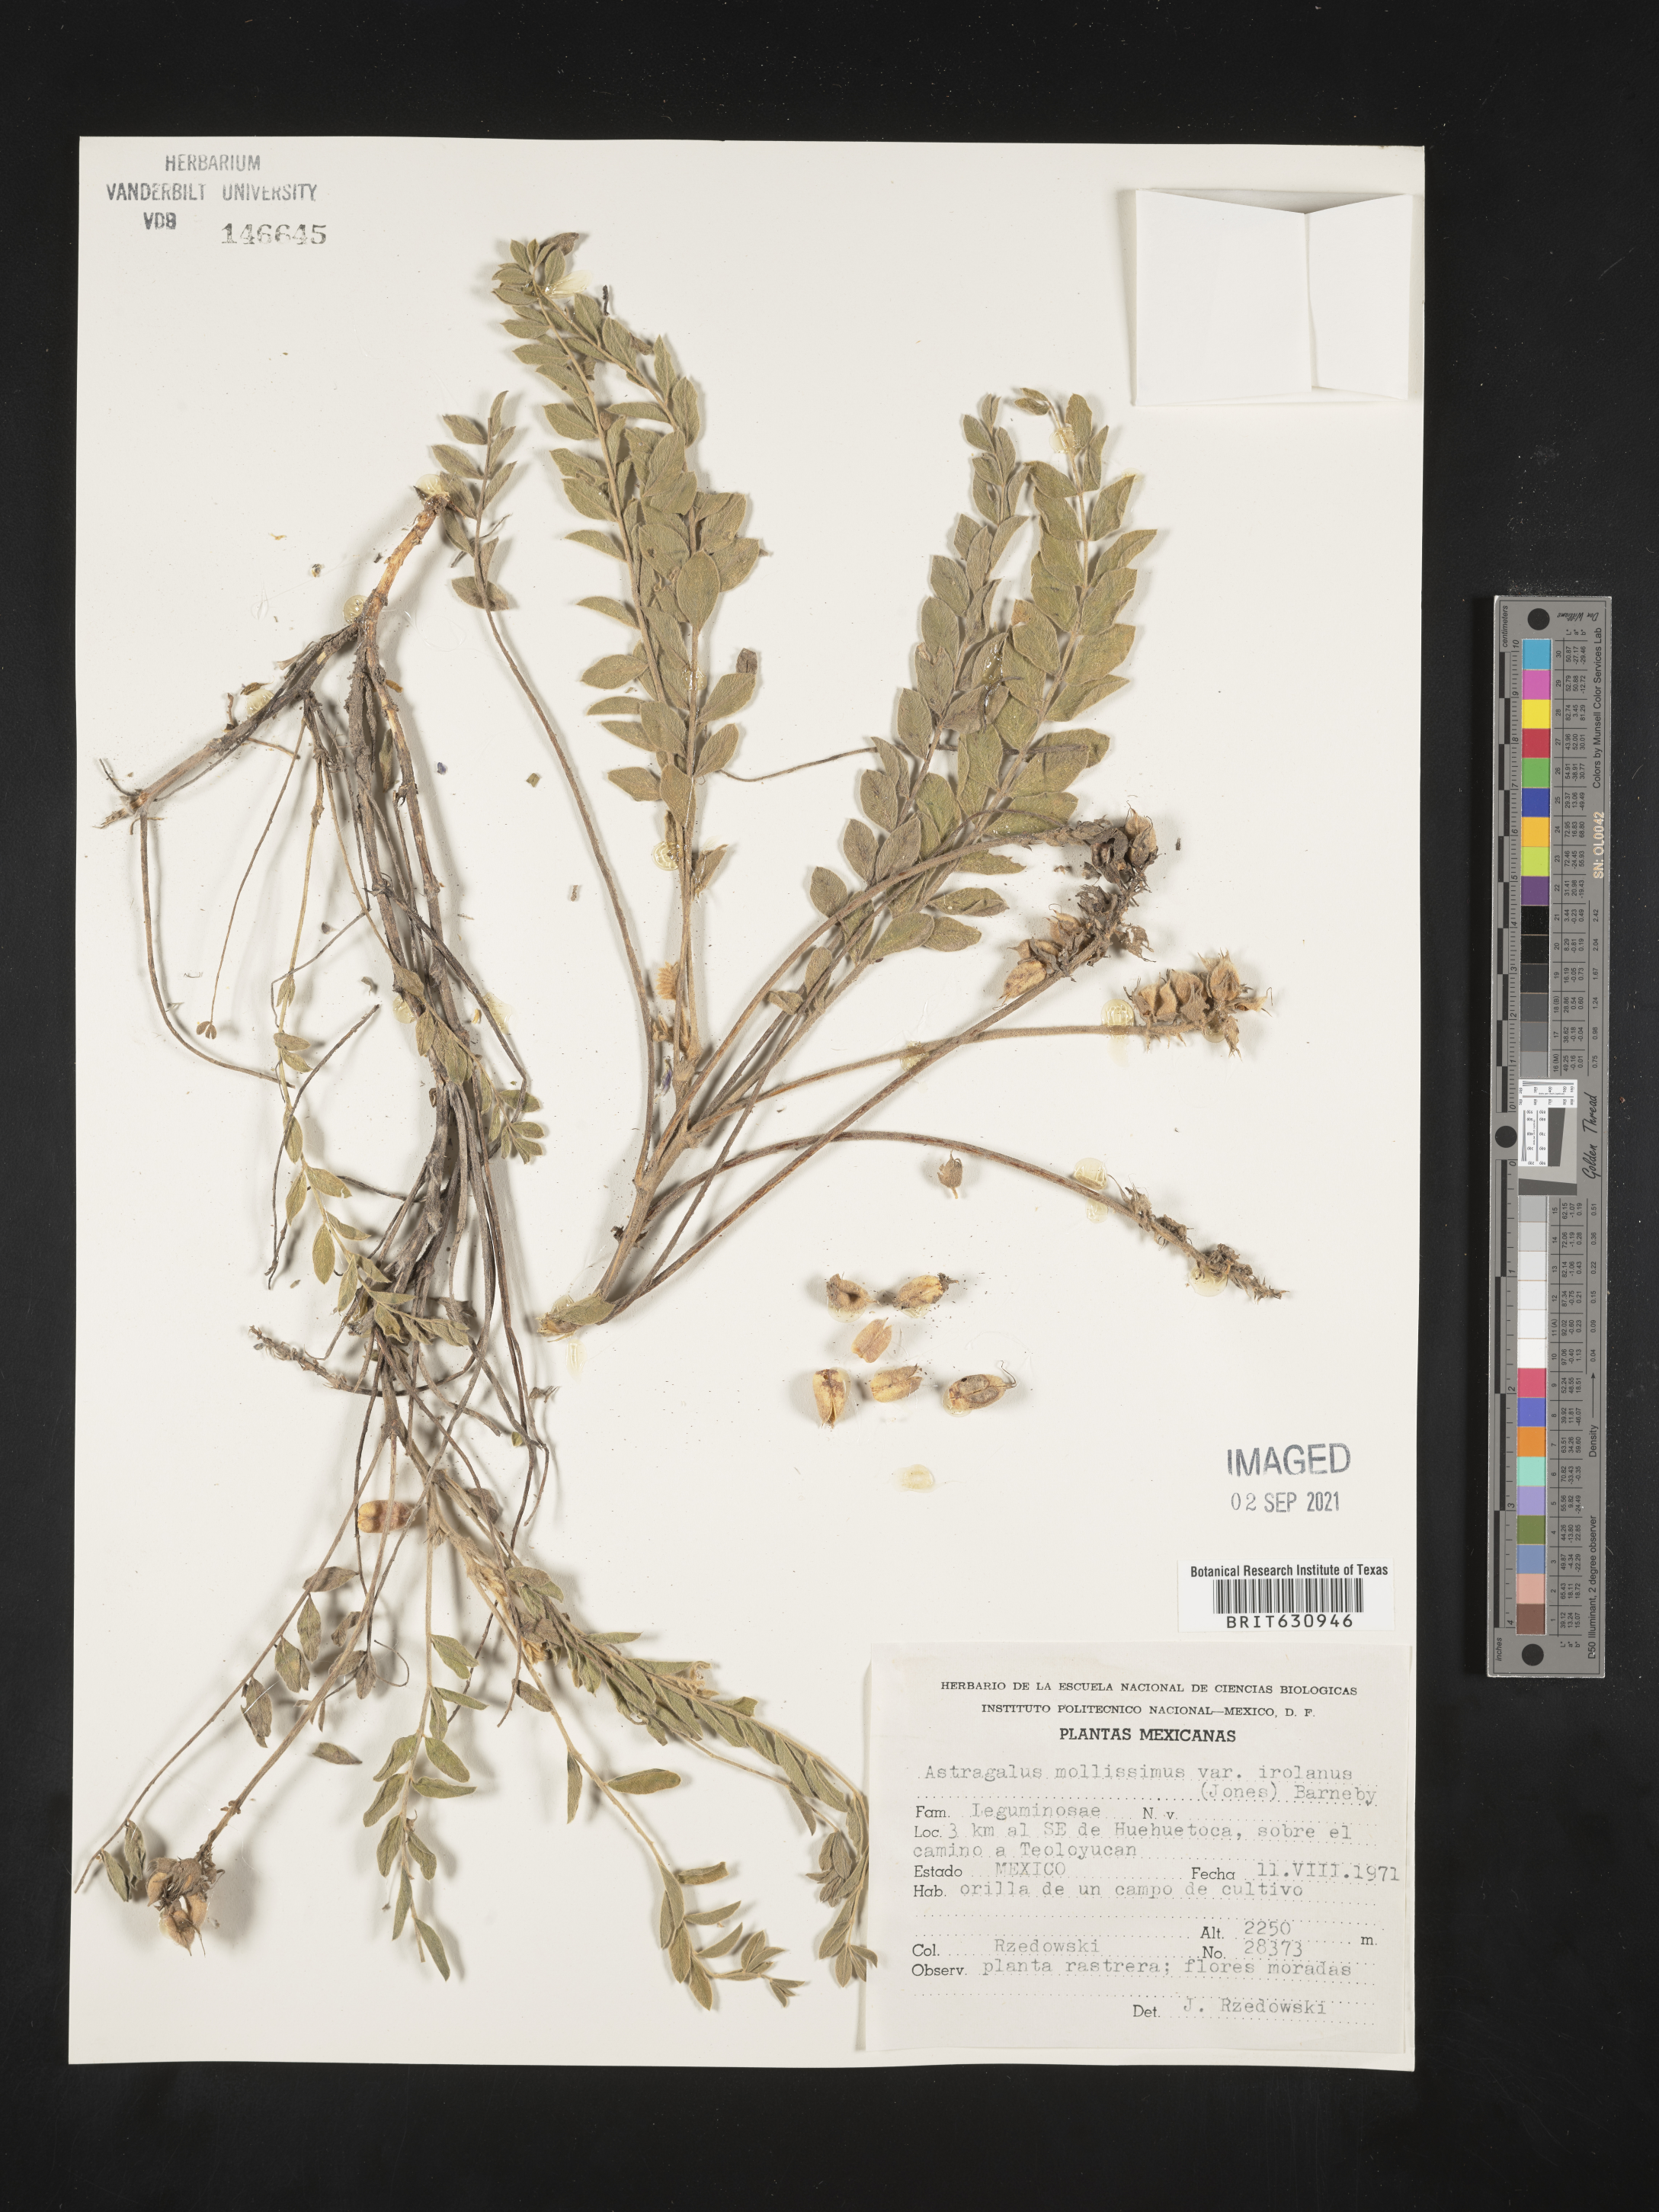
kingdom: Plantae
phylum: Tracheophyta
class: Magnoliopsida
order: Fabales
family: Fabaceae
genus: Astragalus
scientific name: Astragalus
